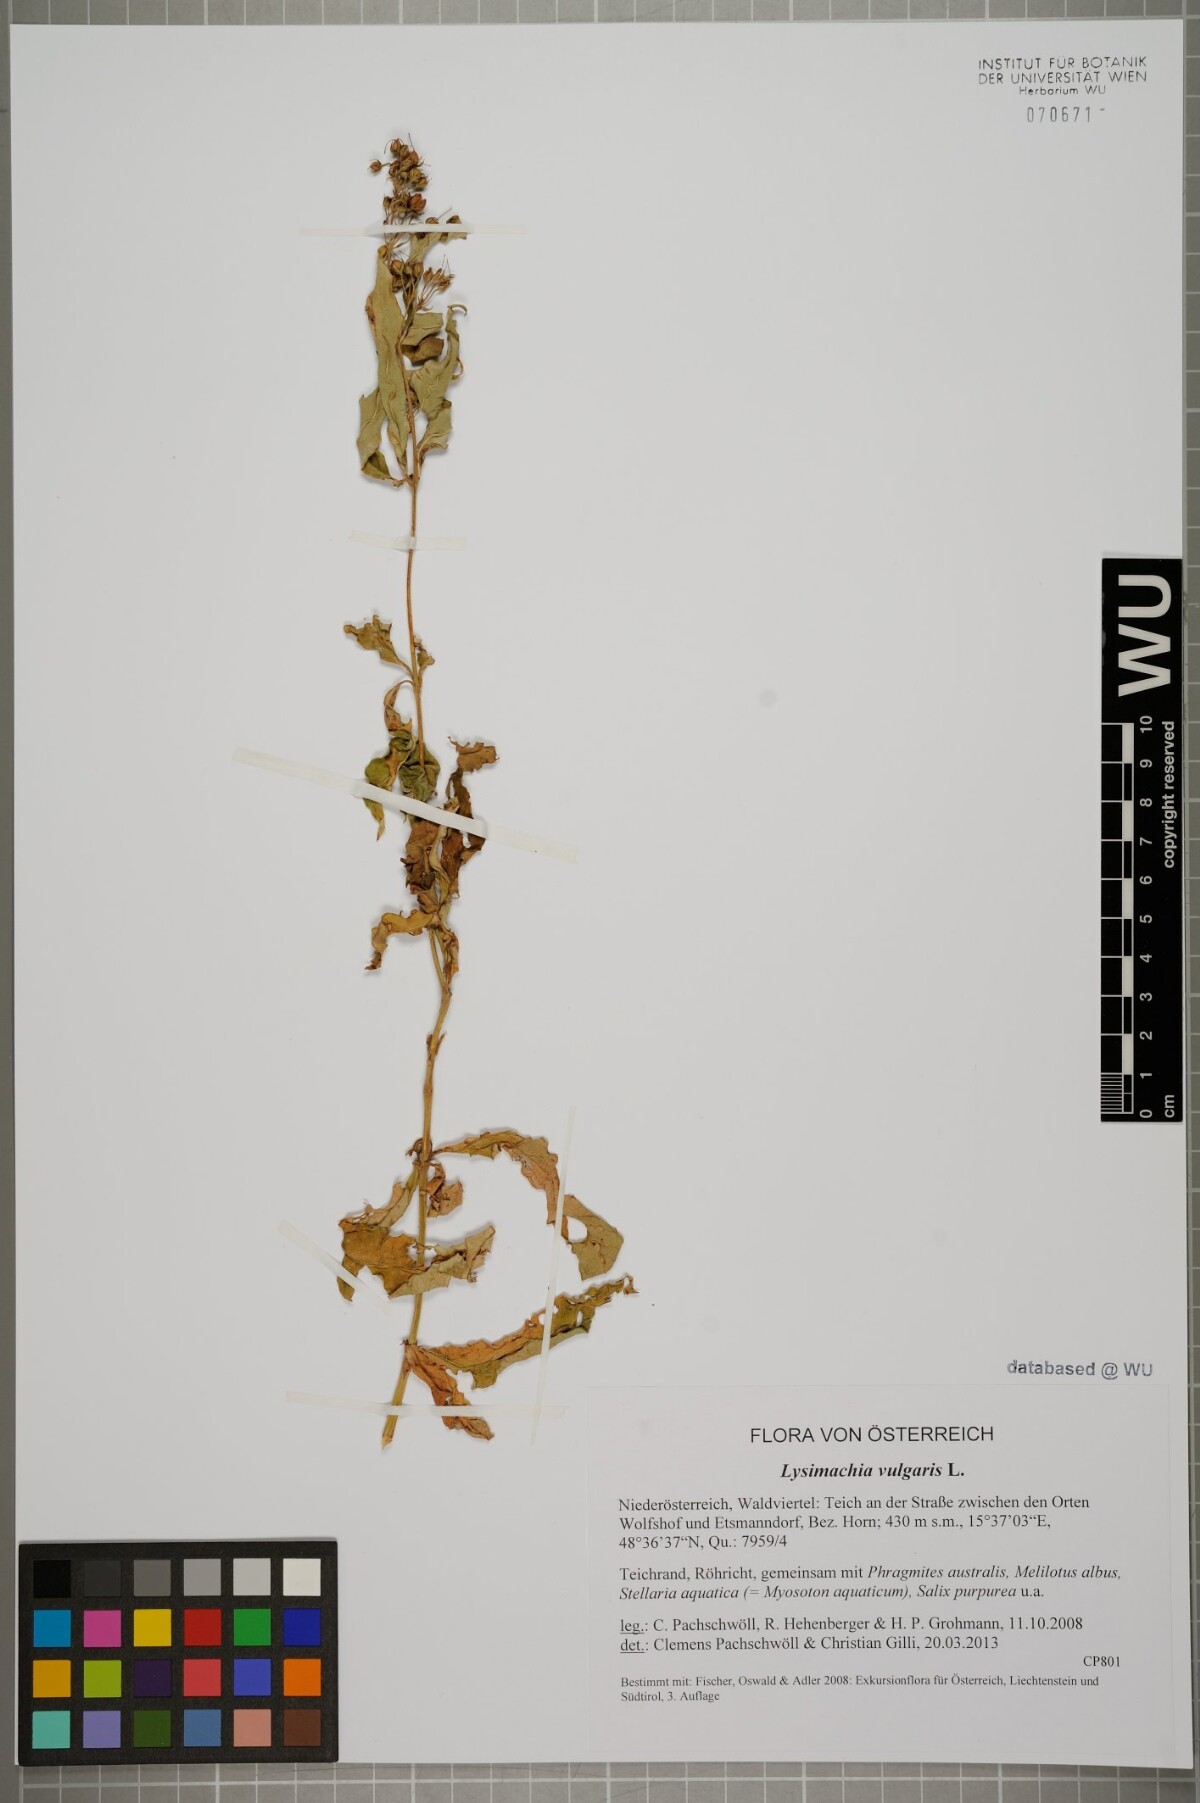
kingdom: Plantae
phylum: Tracheophyta
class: Magnoliopsida
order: Ericales
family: Primulaceae
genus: Lysimachia
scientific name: Lysimachia vulgaris
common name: Yellow loosestrife
